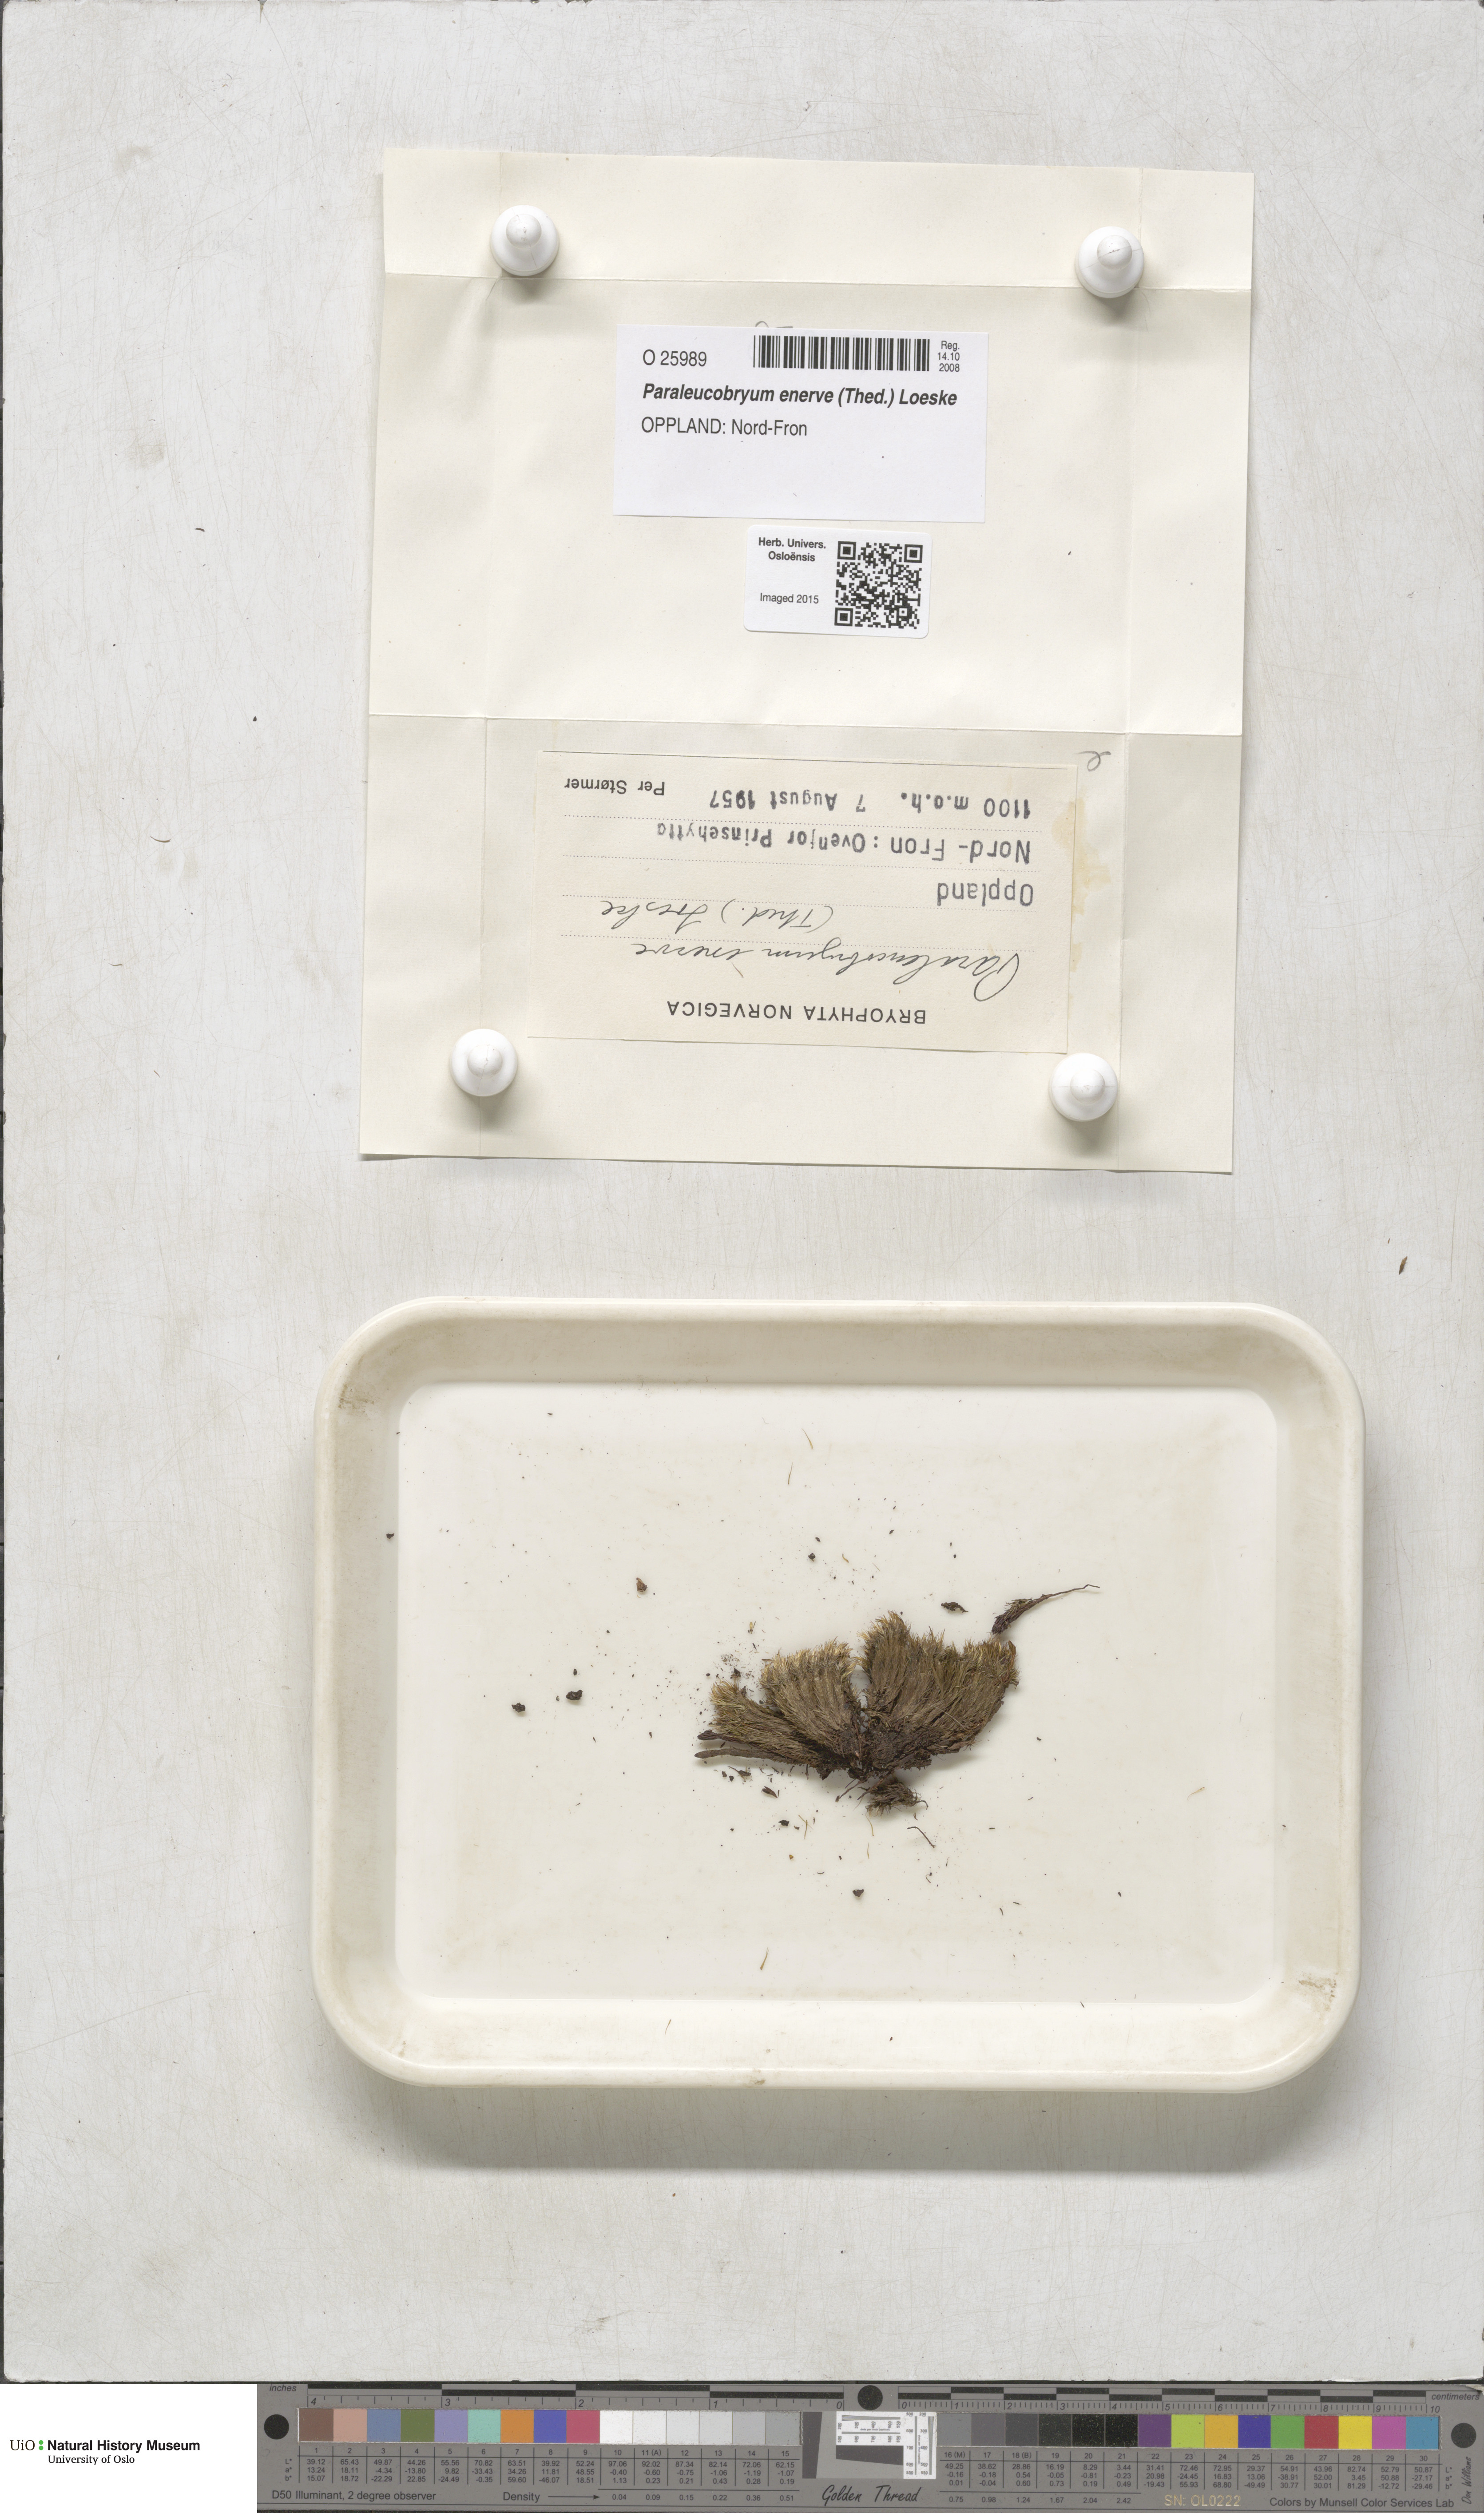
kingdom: Plantae
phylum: Bryophyta
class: Bryopsida
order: Dicranales
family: Dicranaceae
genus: Paraleucobryum
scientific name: Paraleucobryum enerve
